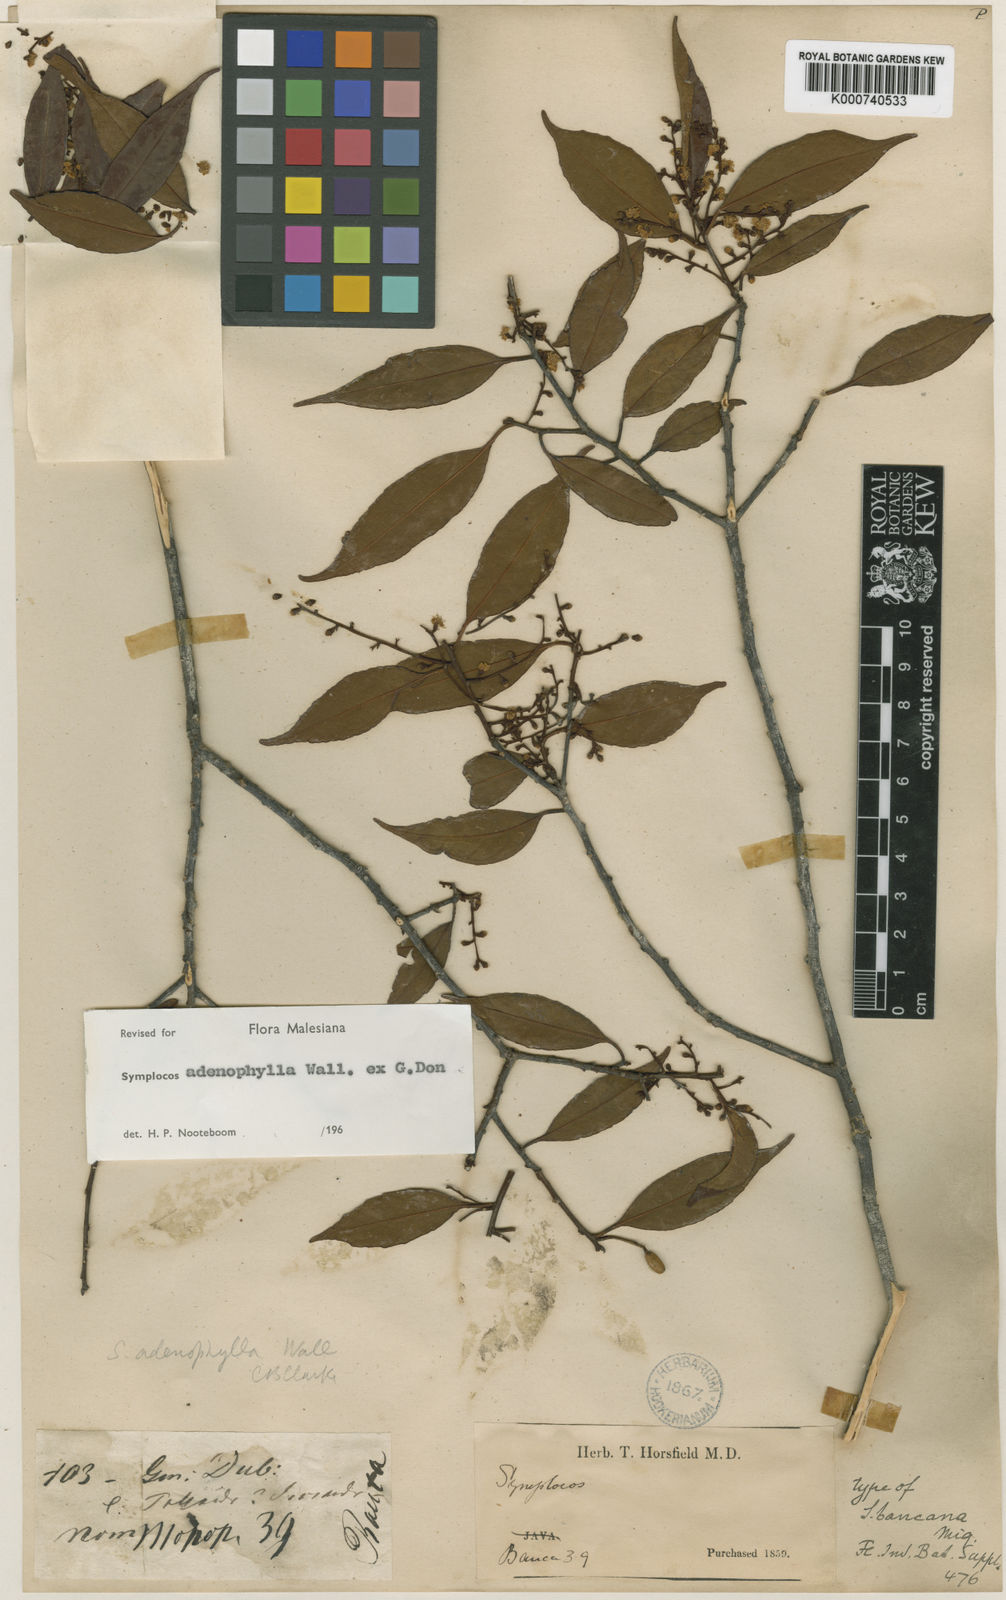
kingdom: Plantae
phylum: Tracheophyta
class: Magnoliopsida
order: Ericales
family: Symplocaceae
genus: Symplocos
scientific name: Symplocos
